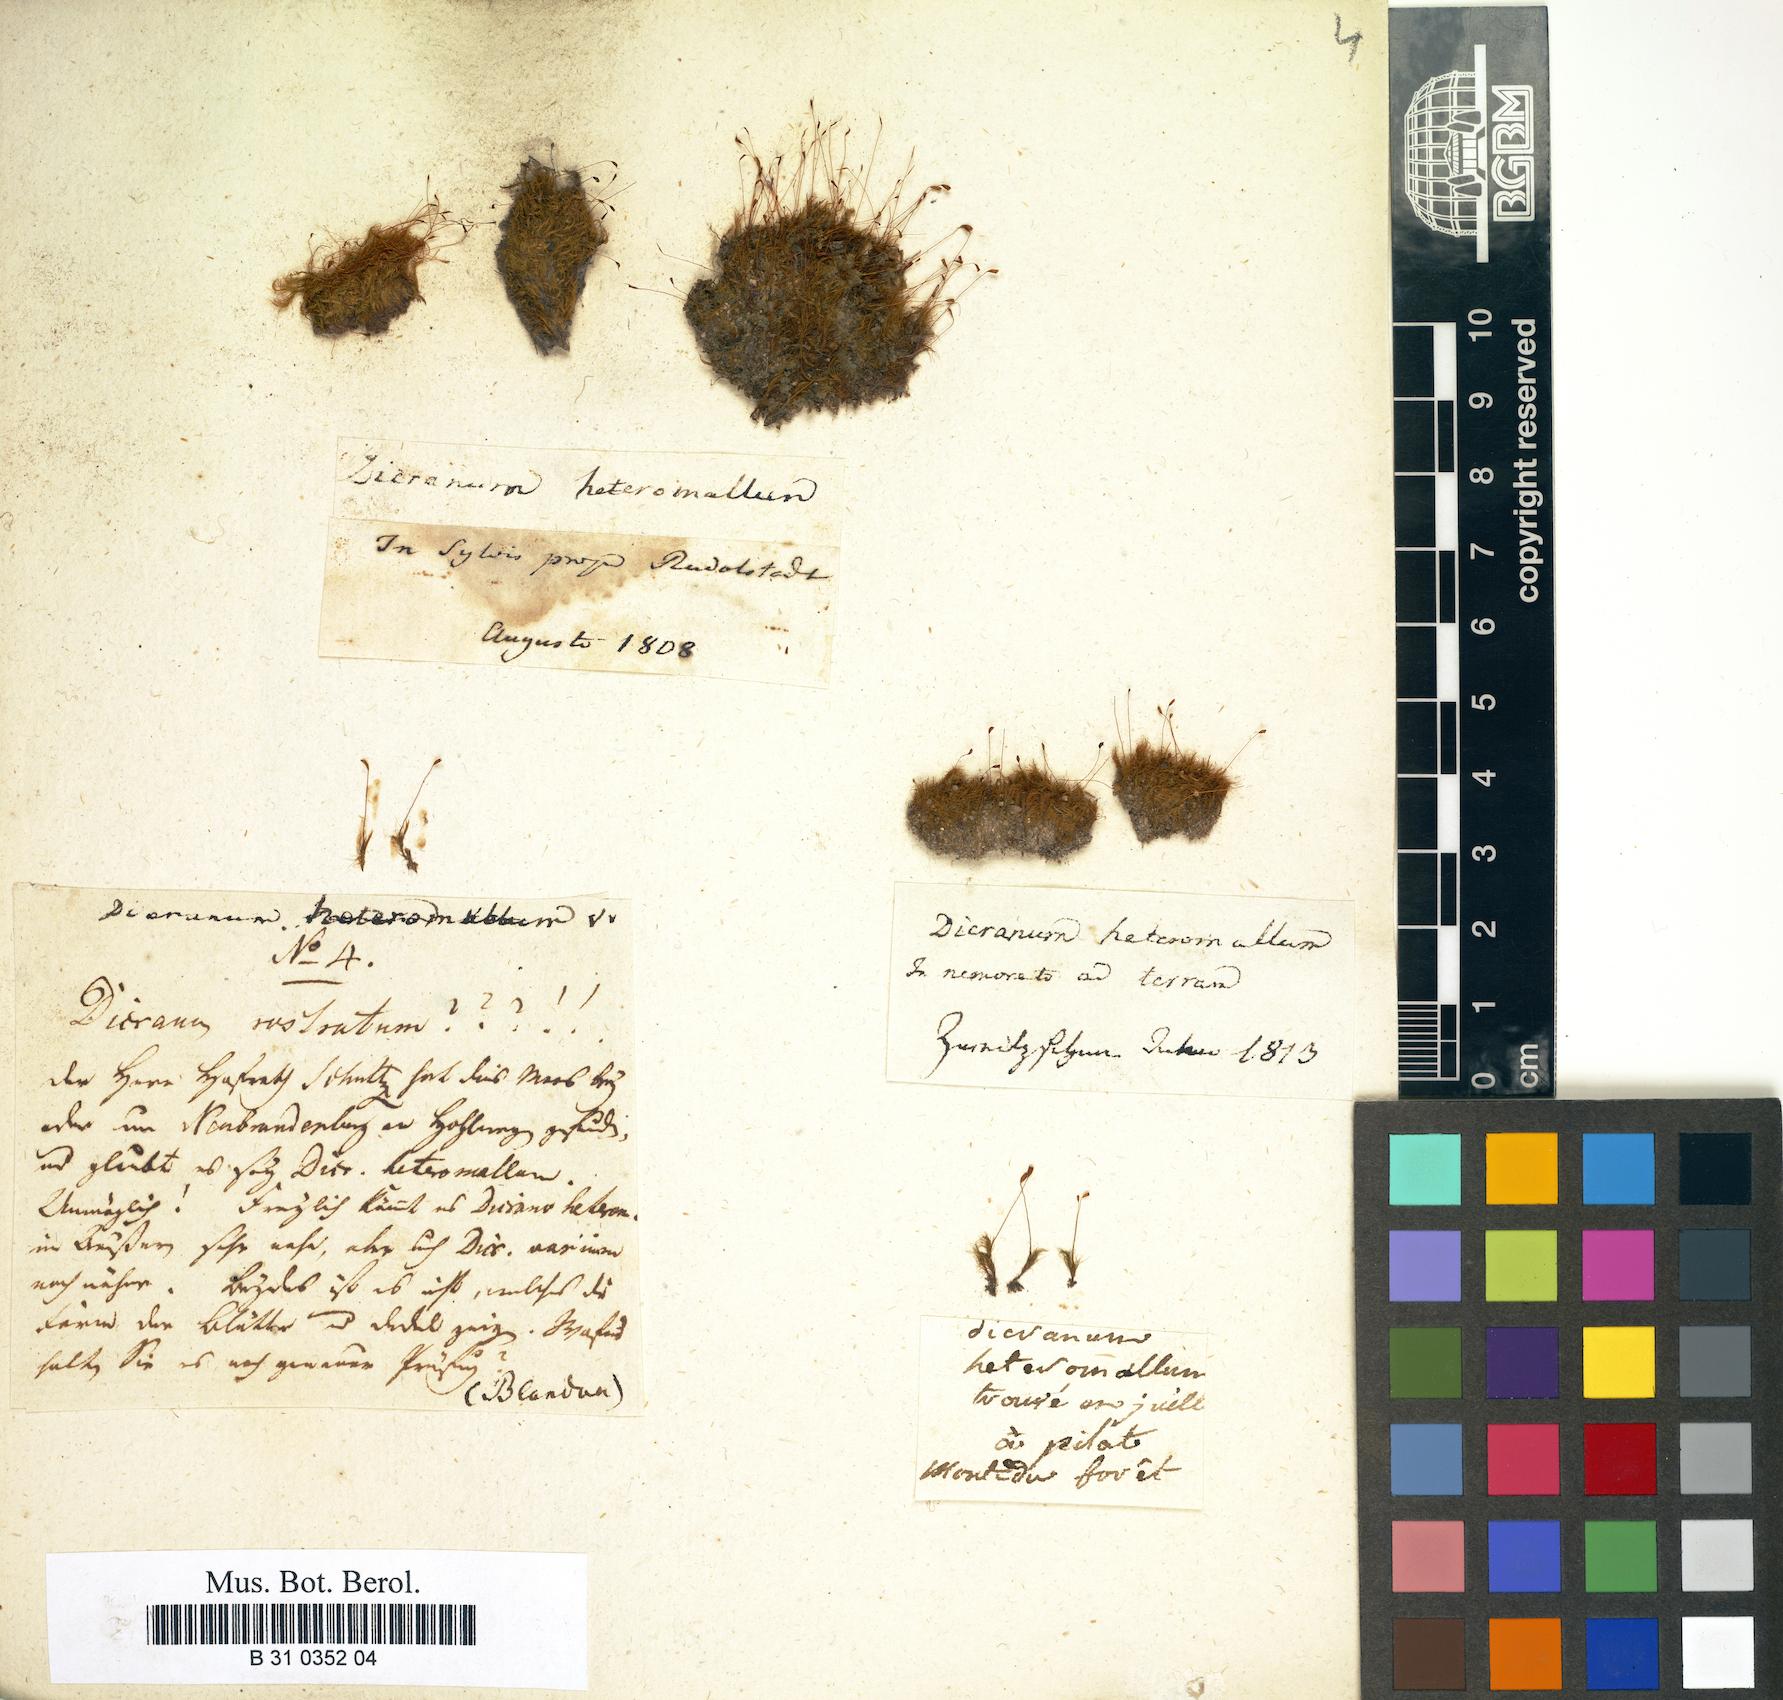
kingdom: Plantae
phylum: Bryophyta
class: Bryopsida
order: Dicranales
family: Dicranellaceae
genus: Dicranella
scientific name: Dicranella heteromalla
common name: Silky forklet moss
